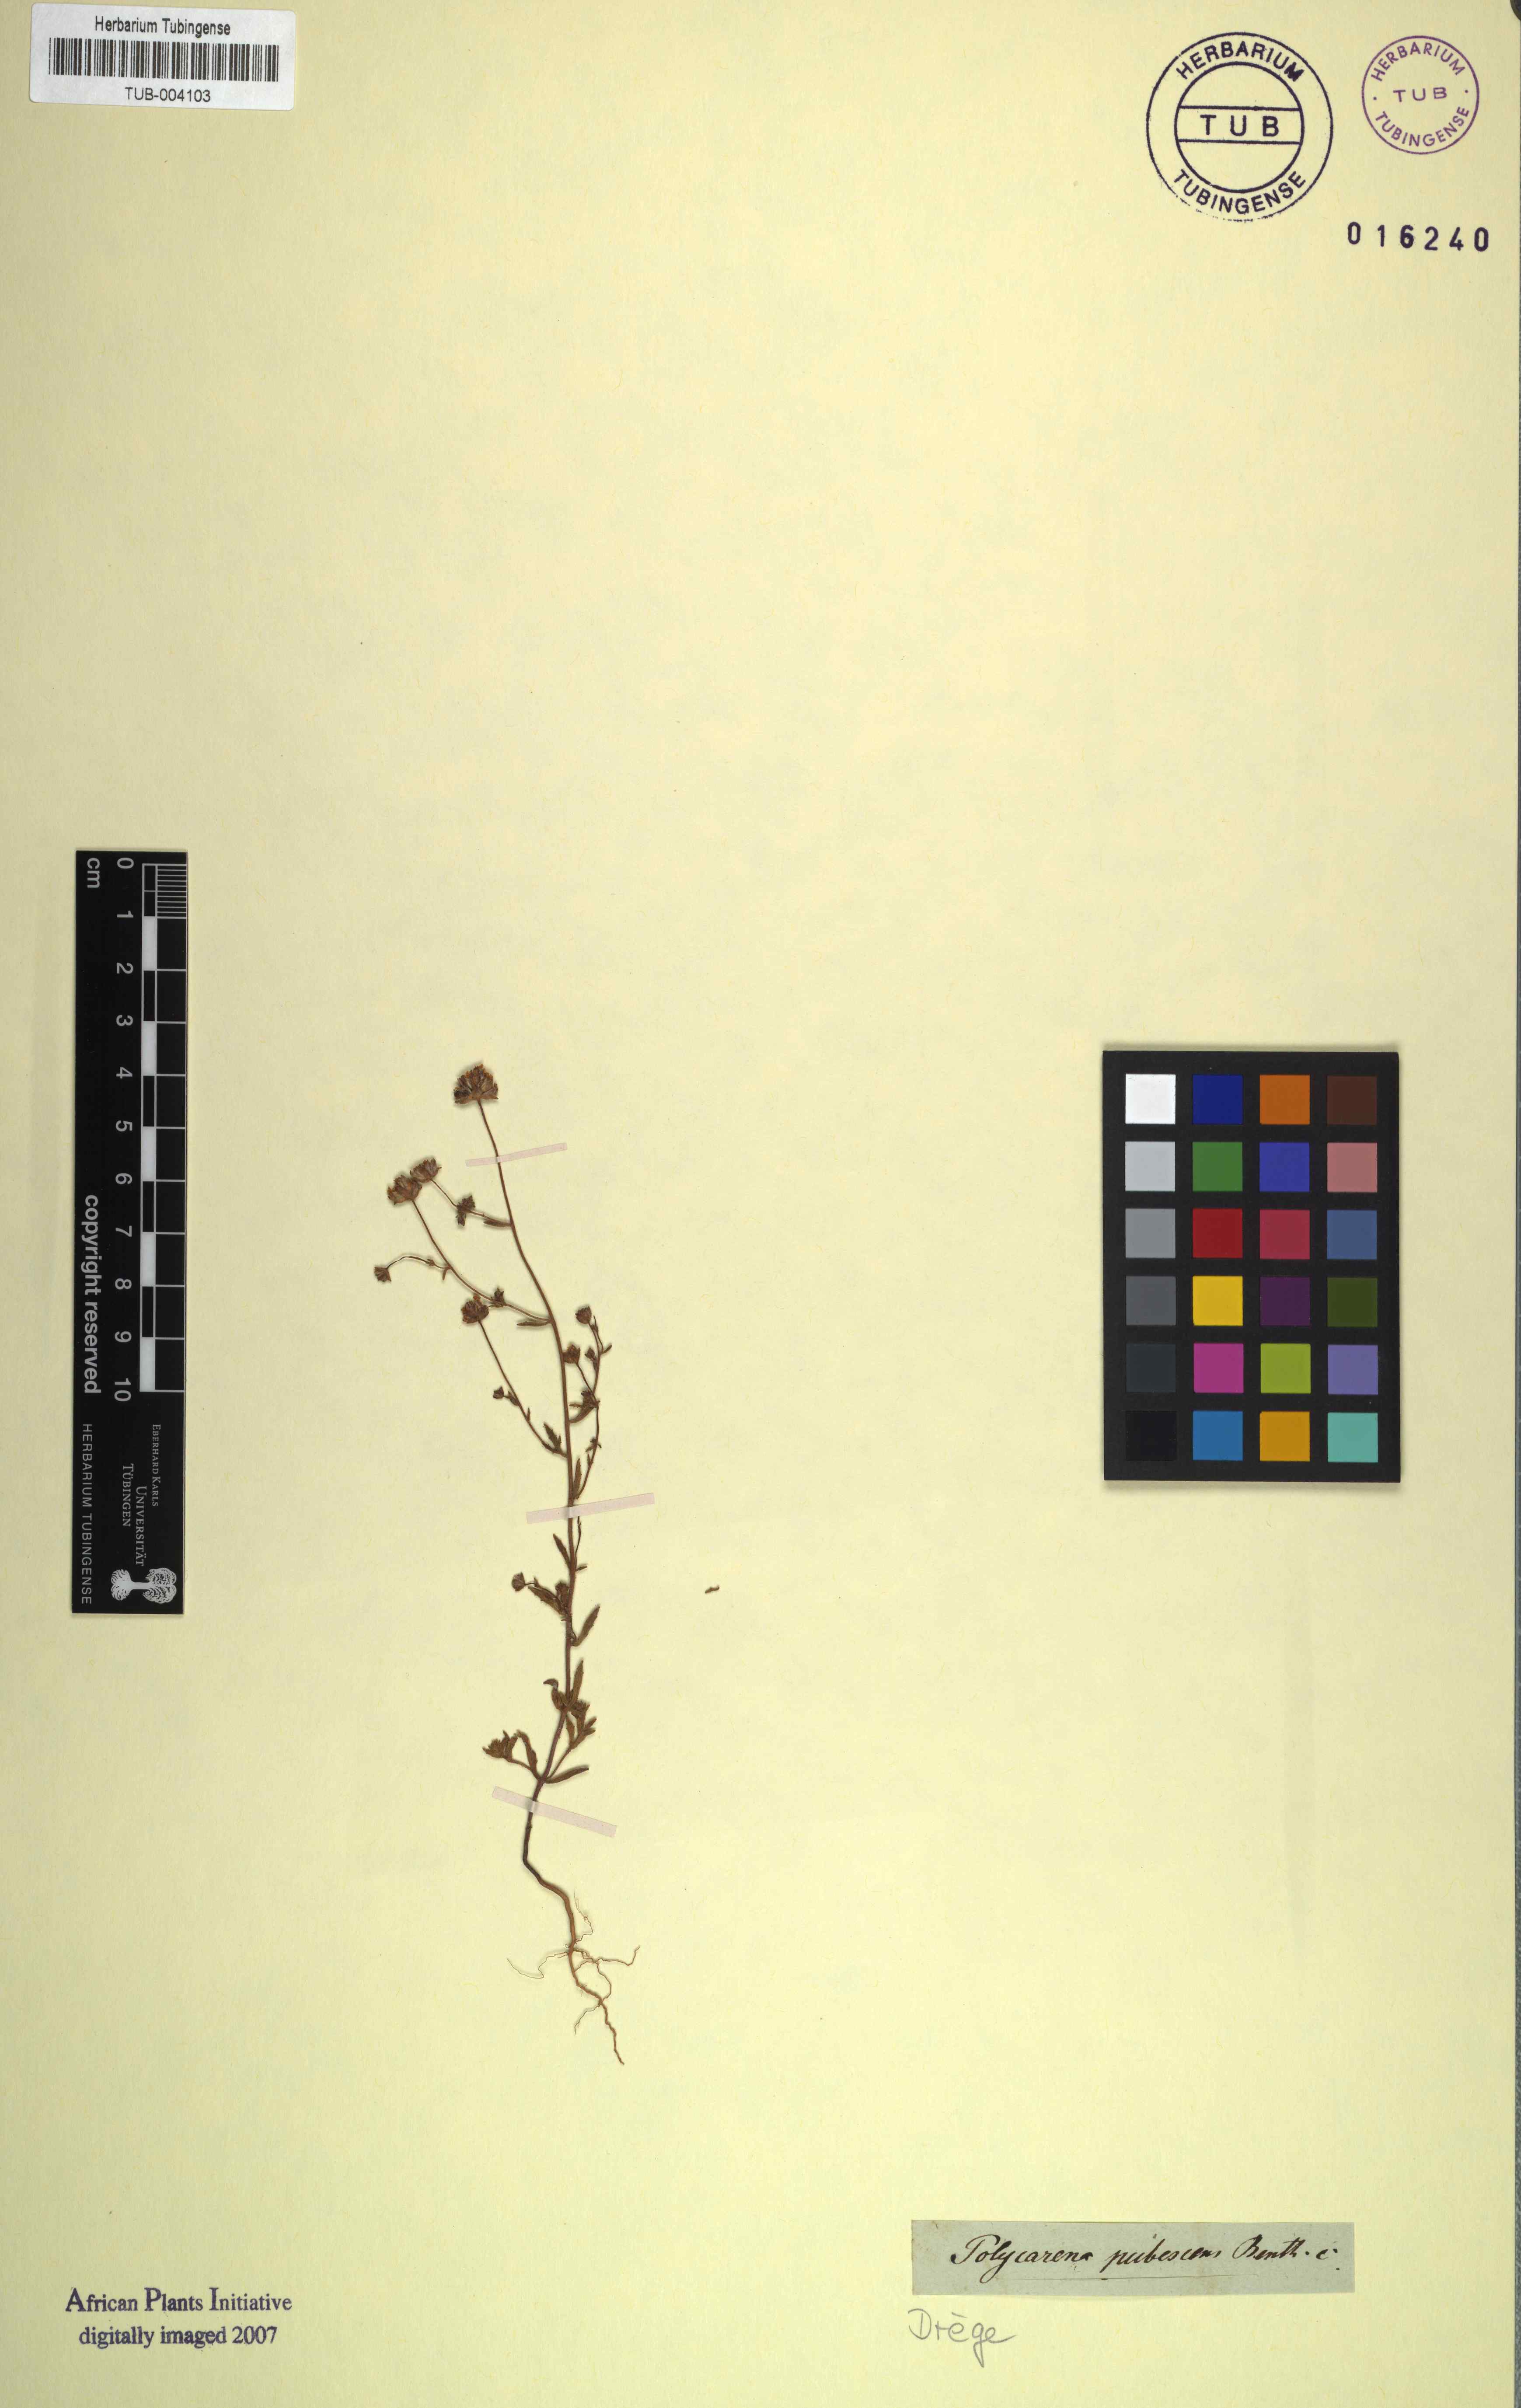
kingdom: Plantae
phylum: Tracheophyta
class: Magnoliopsida
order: Lamiales
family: Scrophulariaceae
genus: Polycarena
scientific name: Polycarena pubescens
